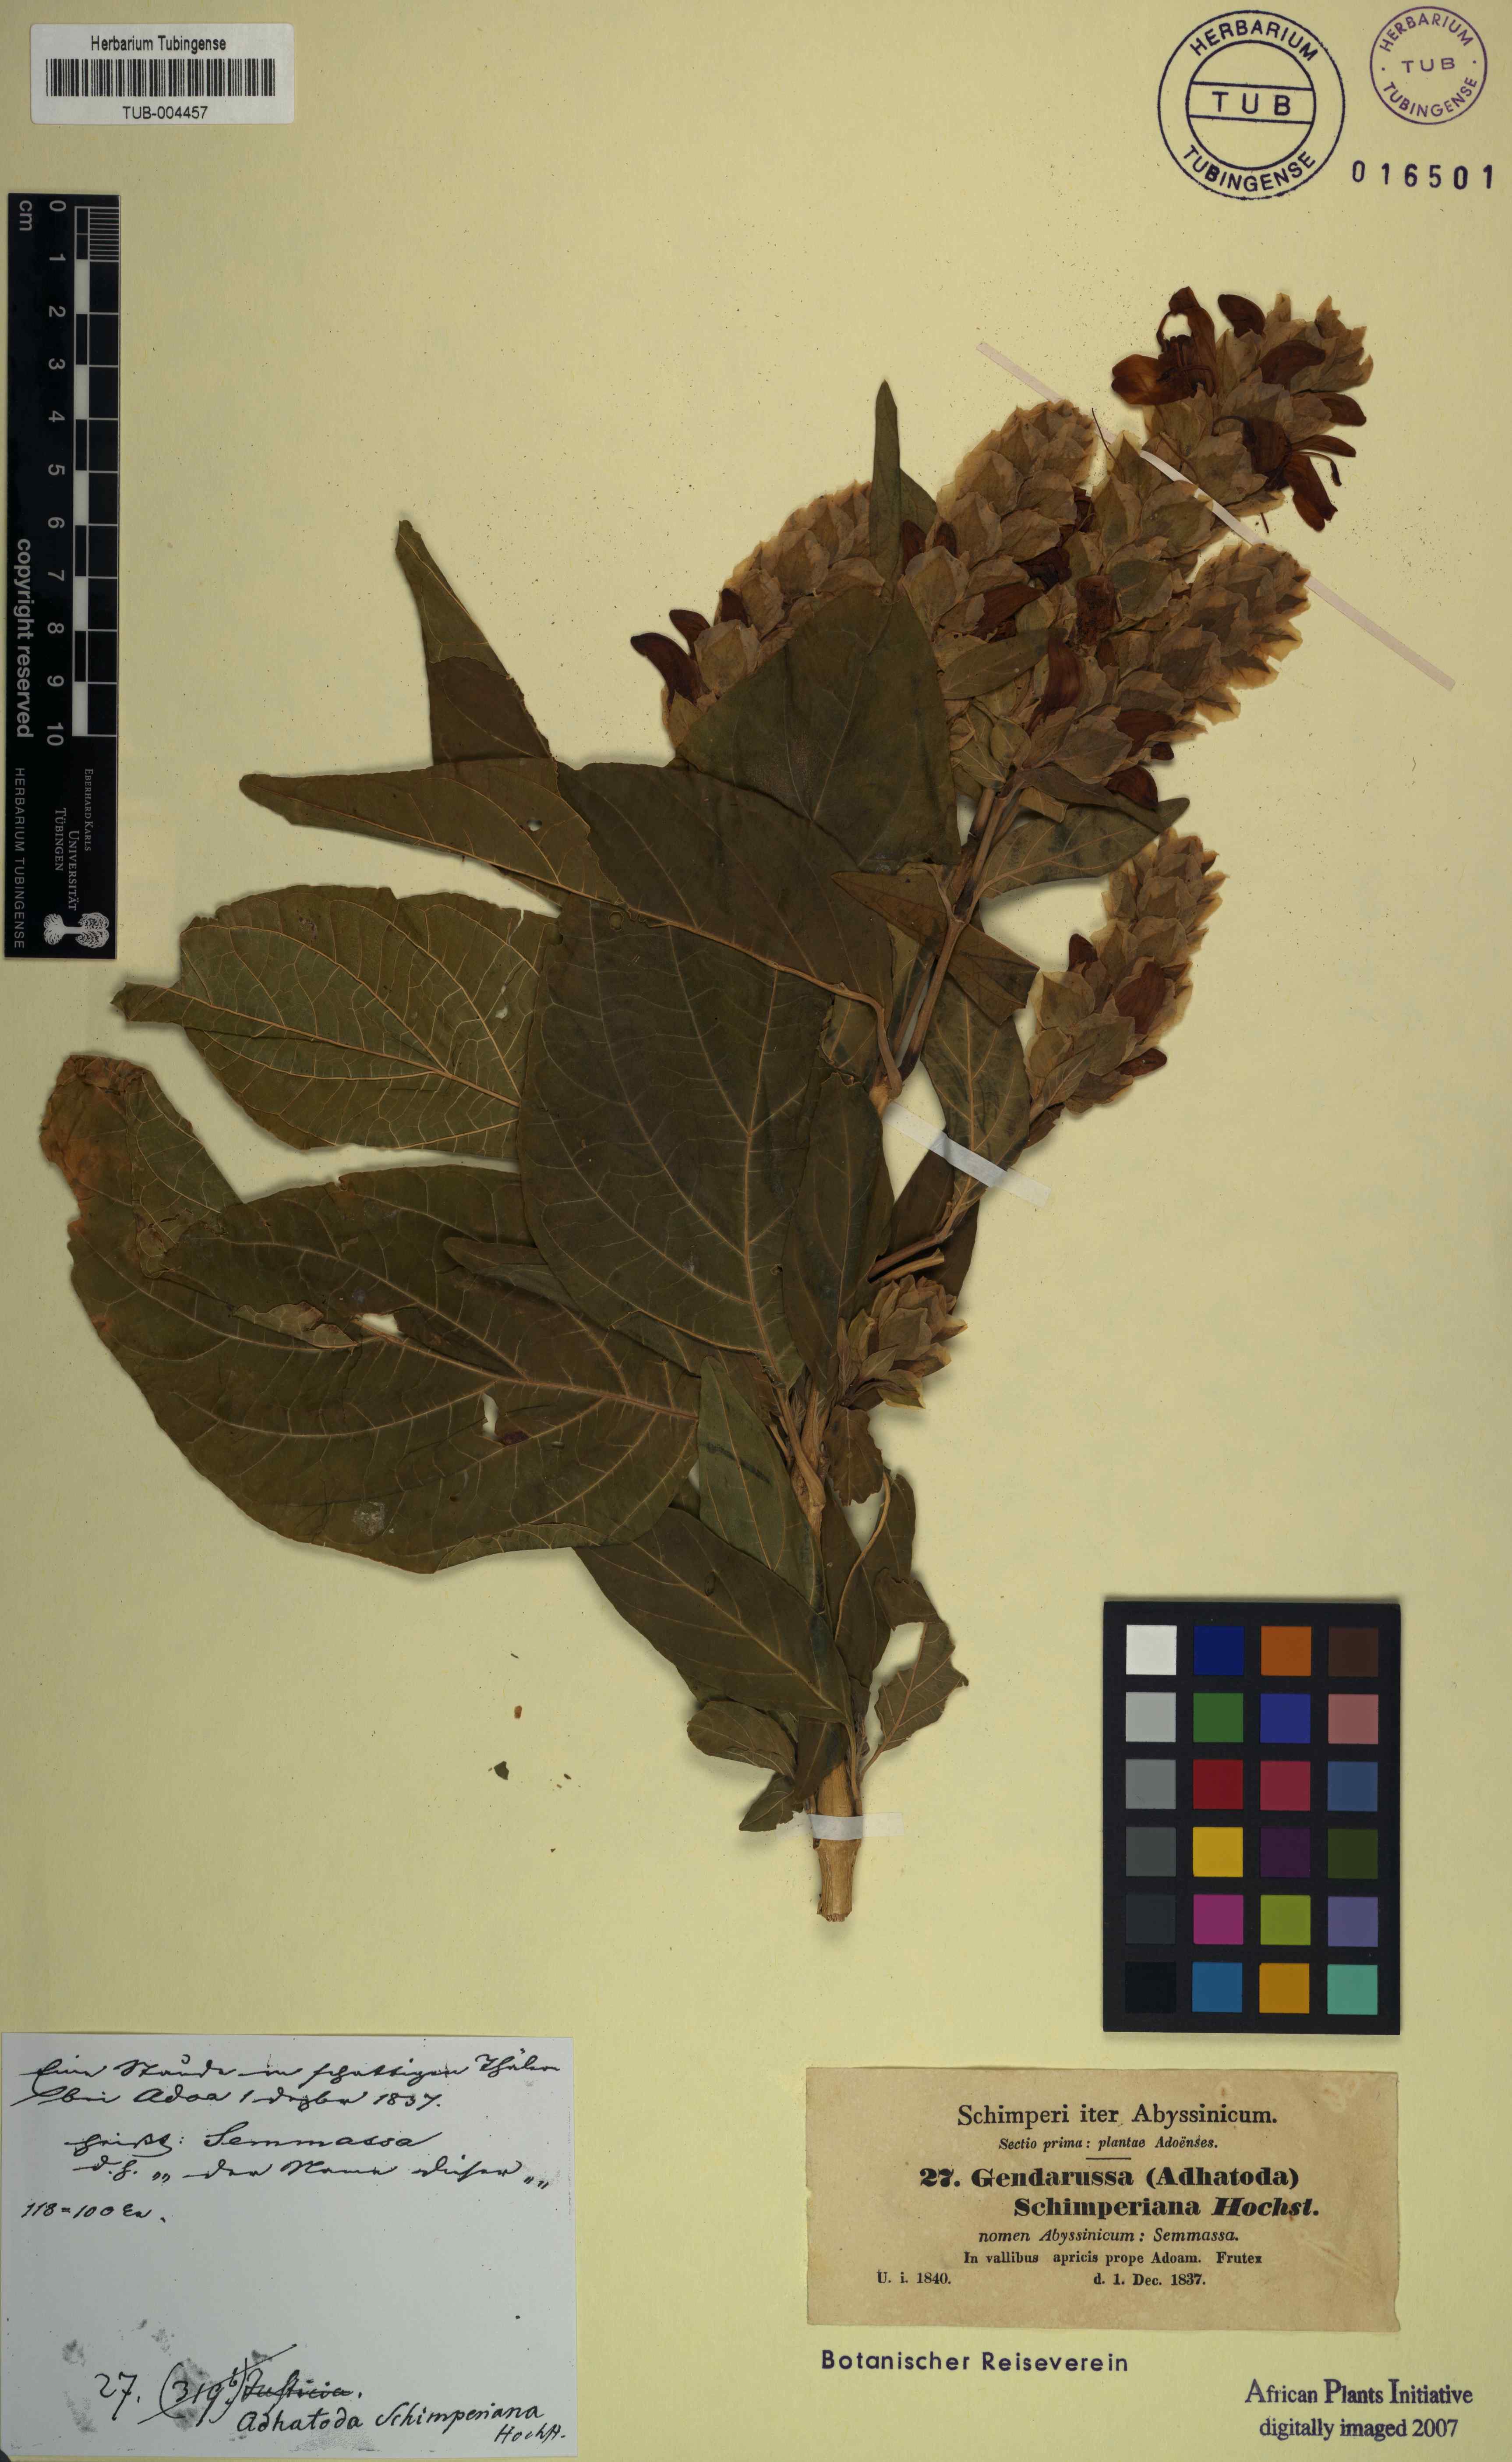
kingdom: Plantae
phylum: Tracheophyta
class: Magnoliopsida
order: Lamiales
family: Acanthaceae
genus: Justicia
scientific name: Justicia schimperiana
